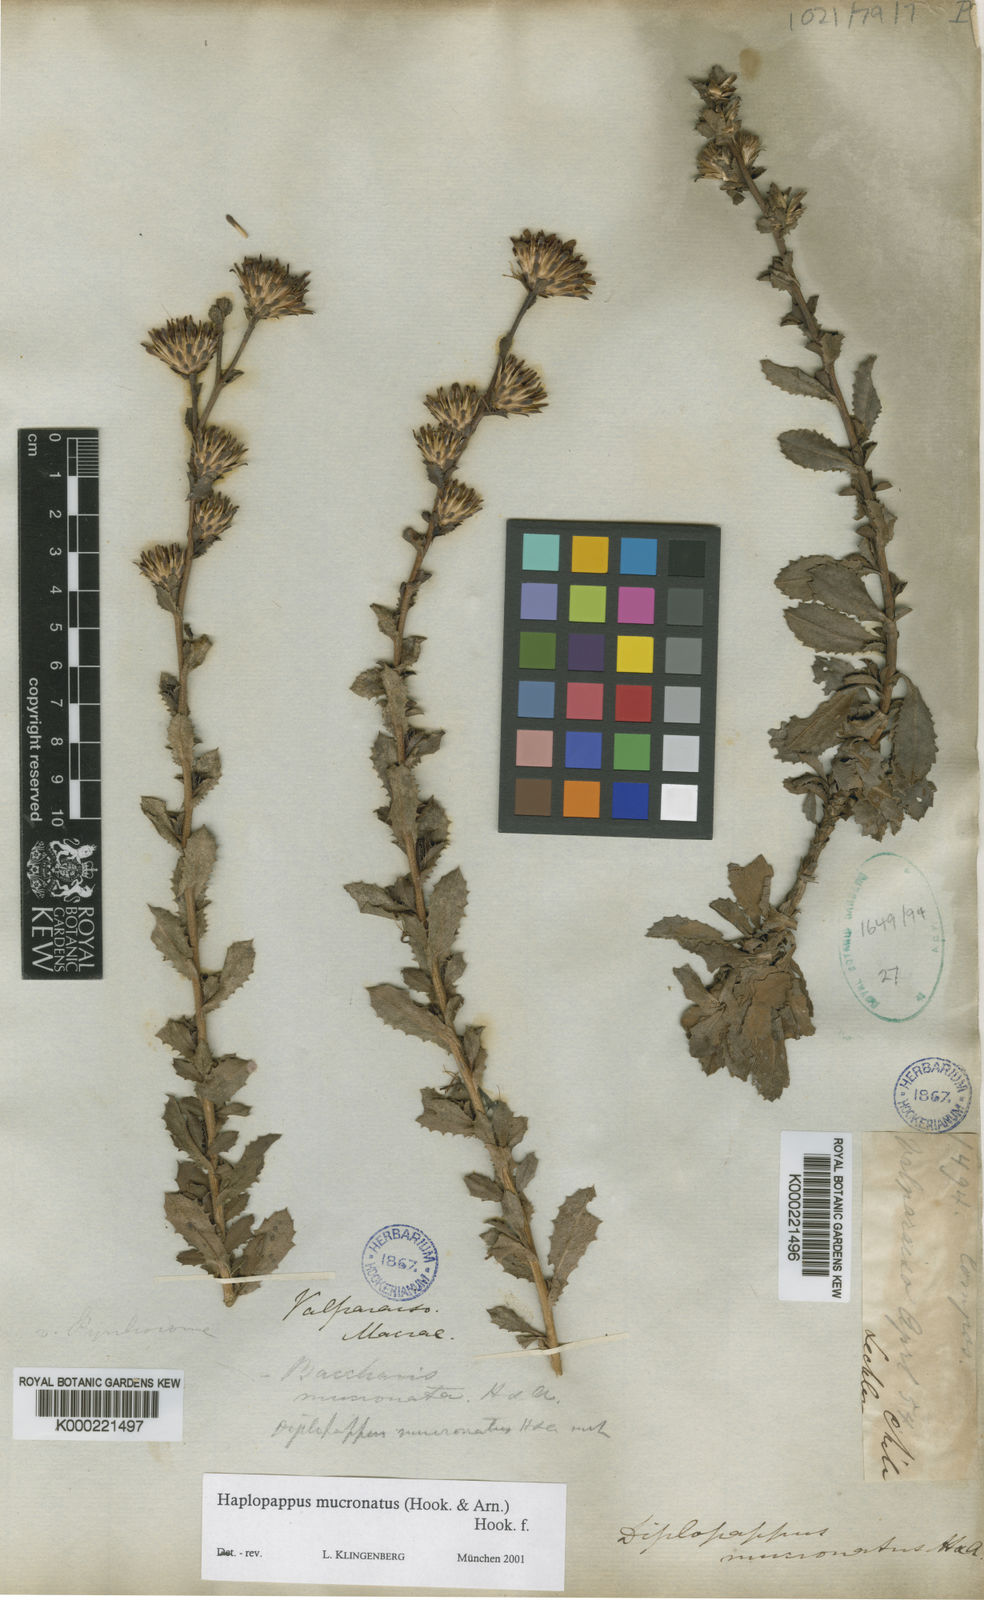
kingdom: Plantae
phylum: Tracheophyta
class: Magnoliopsida
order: Asterales
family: Asteraceae
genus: Haplopappus
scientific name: Haplopappus mucronatus
